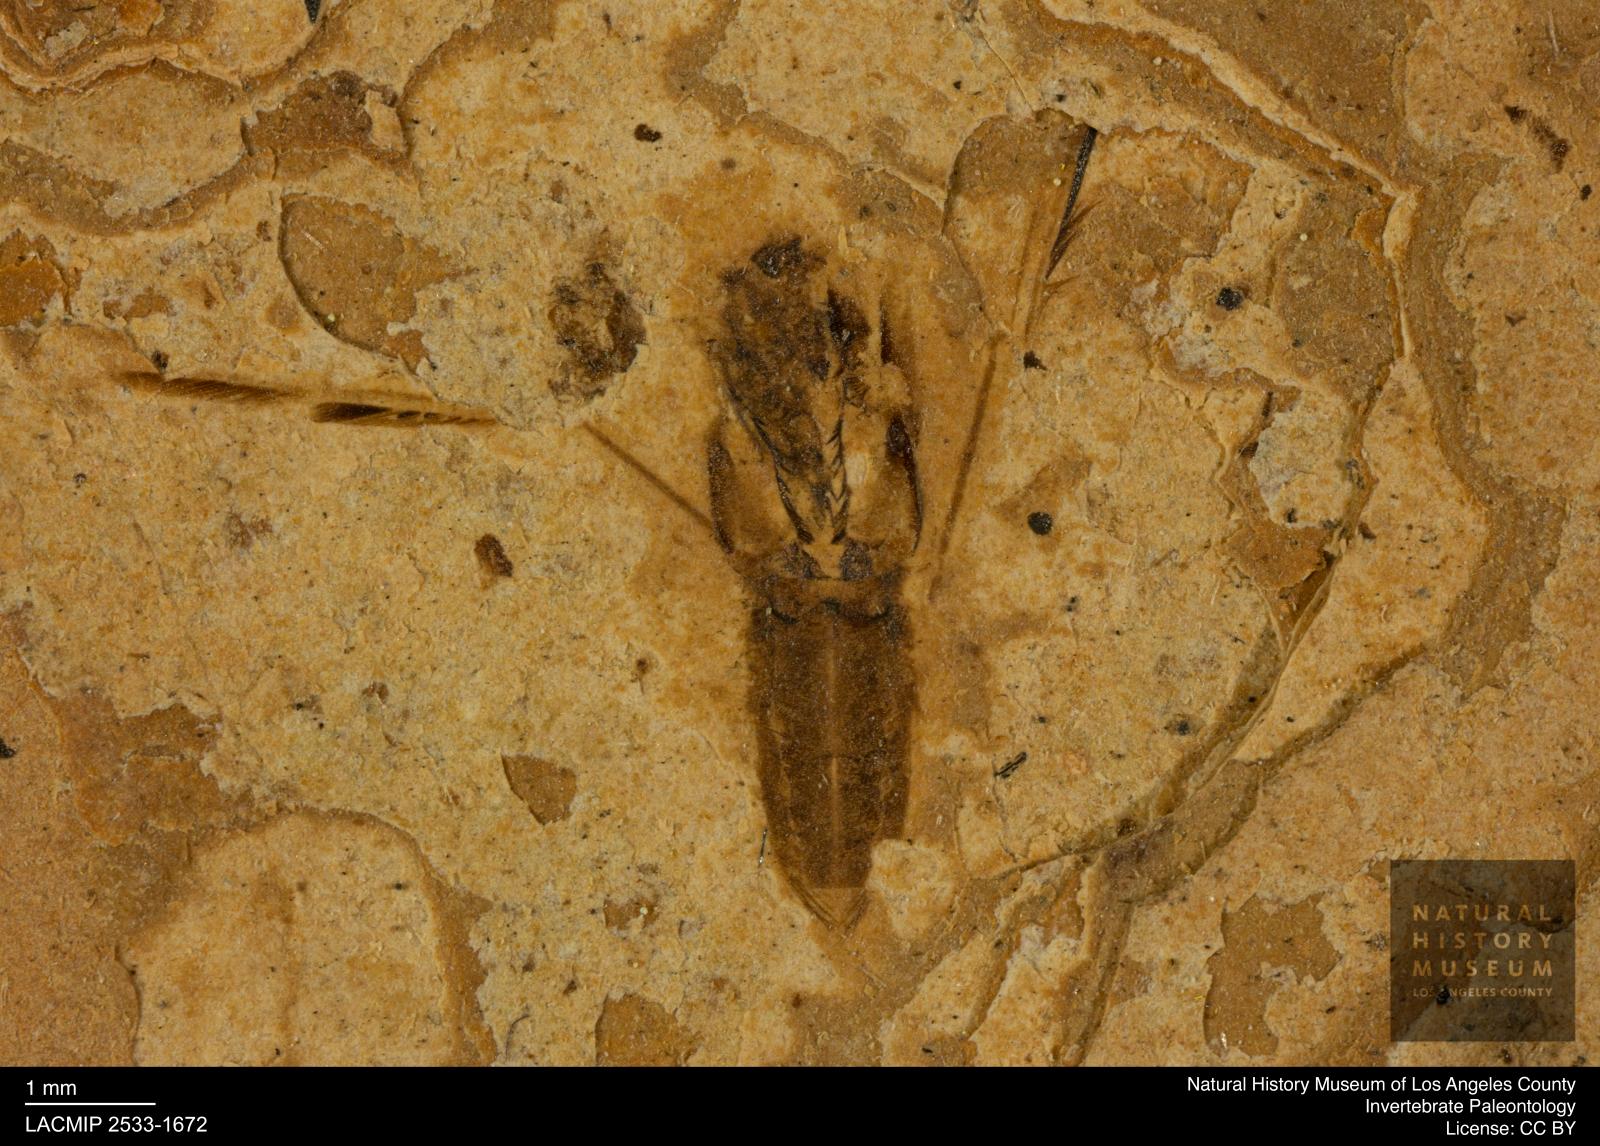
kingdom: Animalia
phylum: Arthropoda
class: Insecta
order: Hemiptera
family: Notonectidae
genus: Notonecta
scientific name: Notonecta
